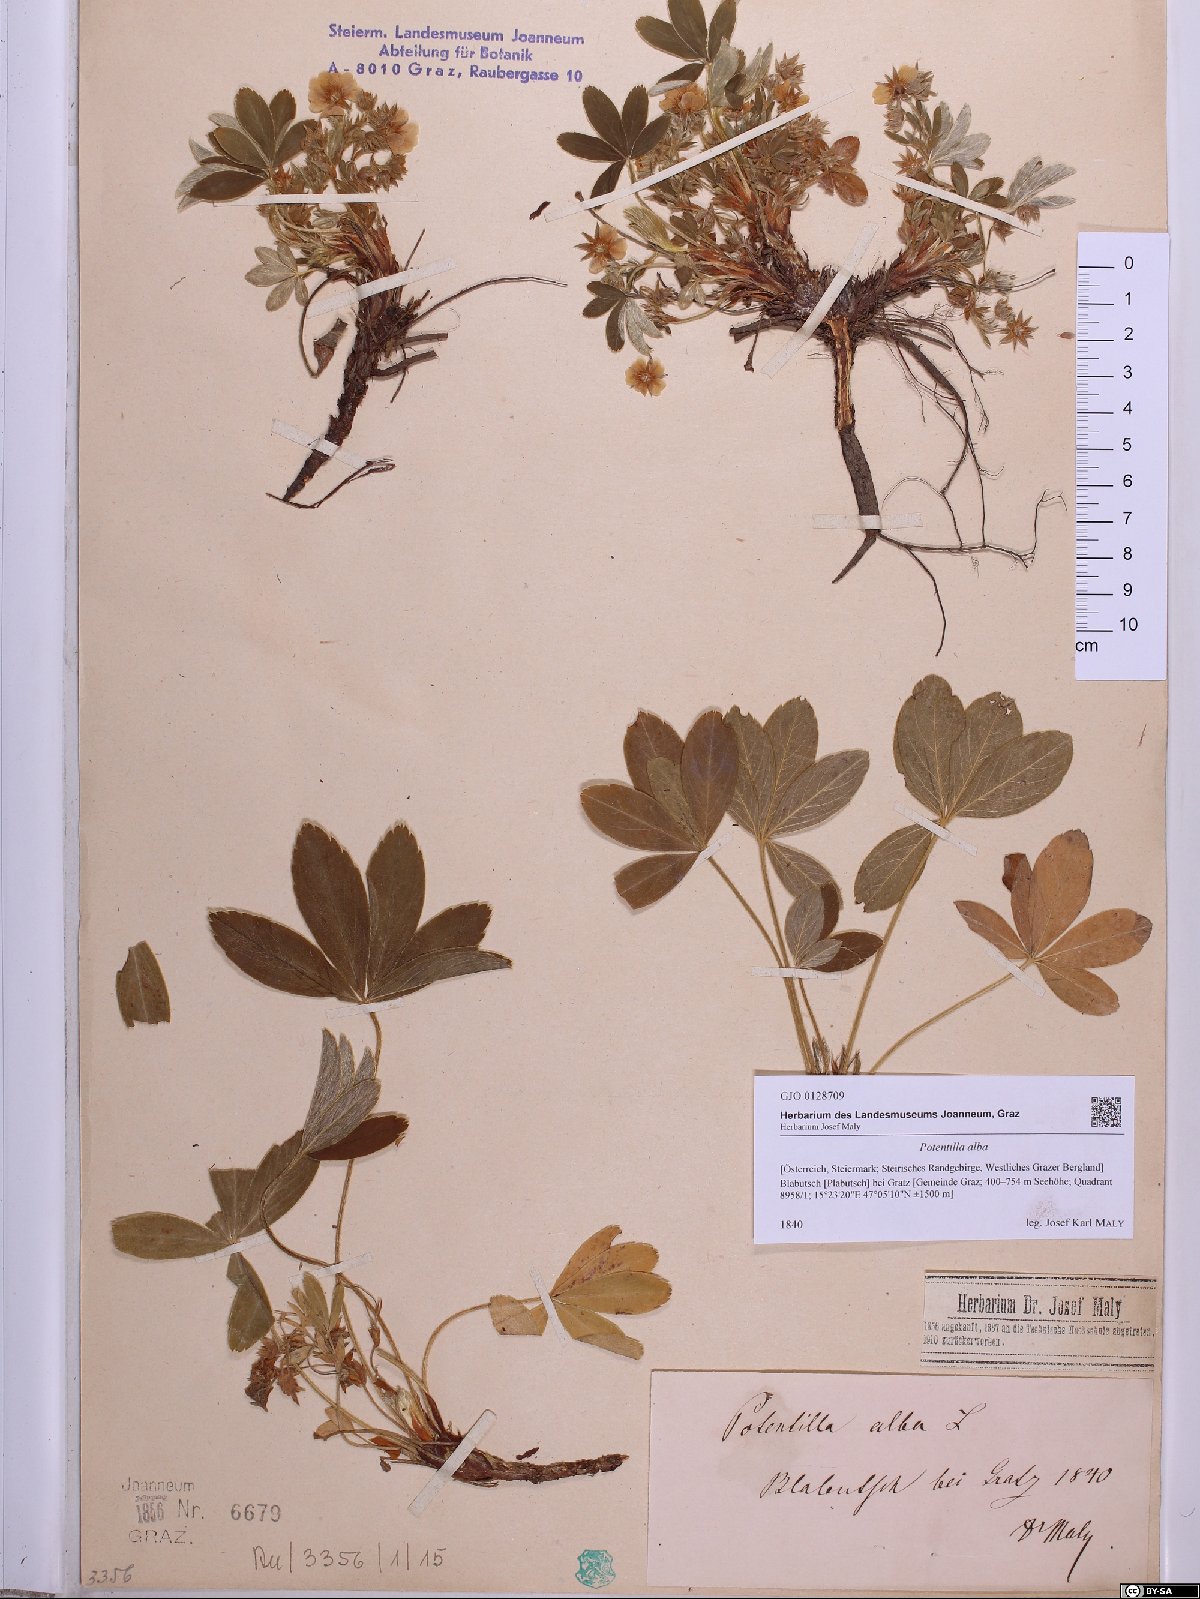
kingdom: Plantae
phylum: Tracheophyta
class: Magnoliopsida
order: Rosales
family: Rosaceae
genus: Potentilla
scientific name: Potentilla alba
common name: White cinquefoil
